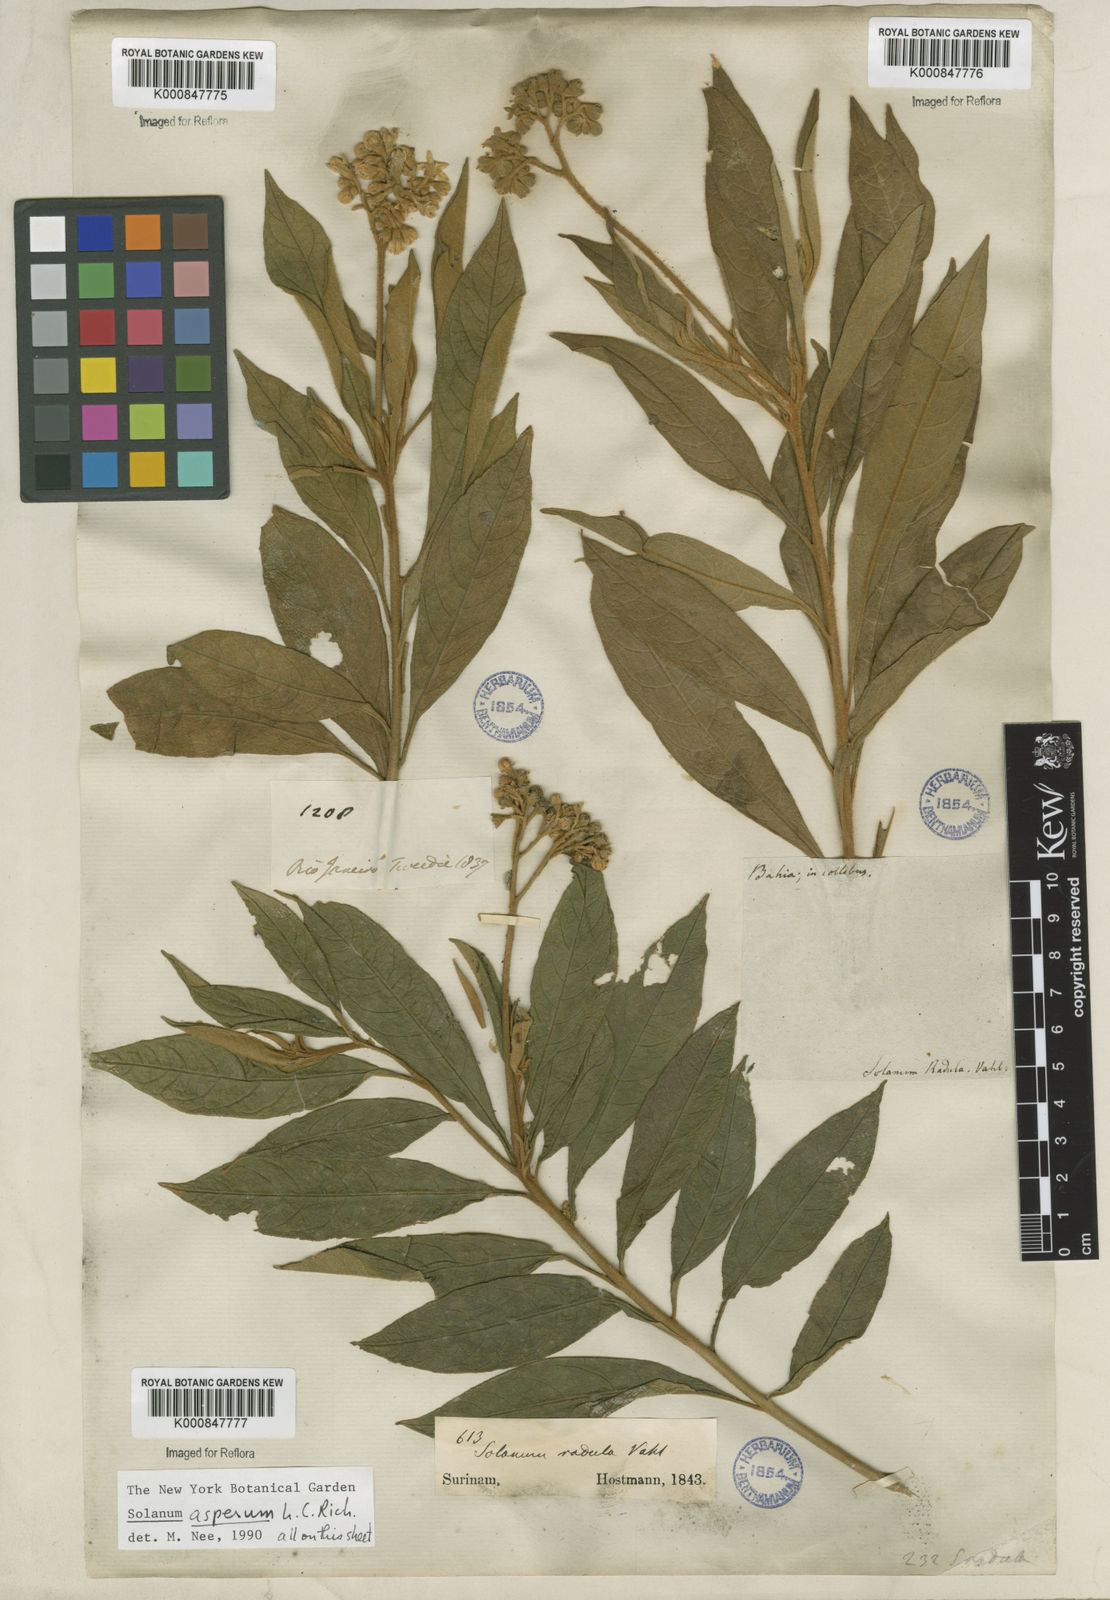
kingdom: Plantae
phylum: Tracheophyta
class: Magnoliopsida
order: Solanales
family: Solanaceae
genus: Solanum
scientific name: Solanum asperum
